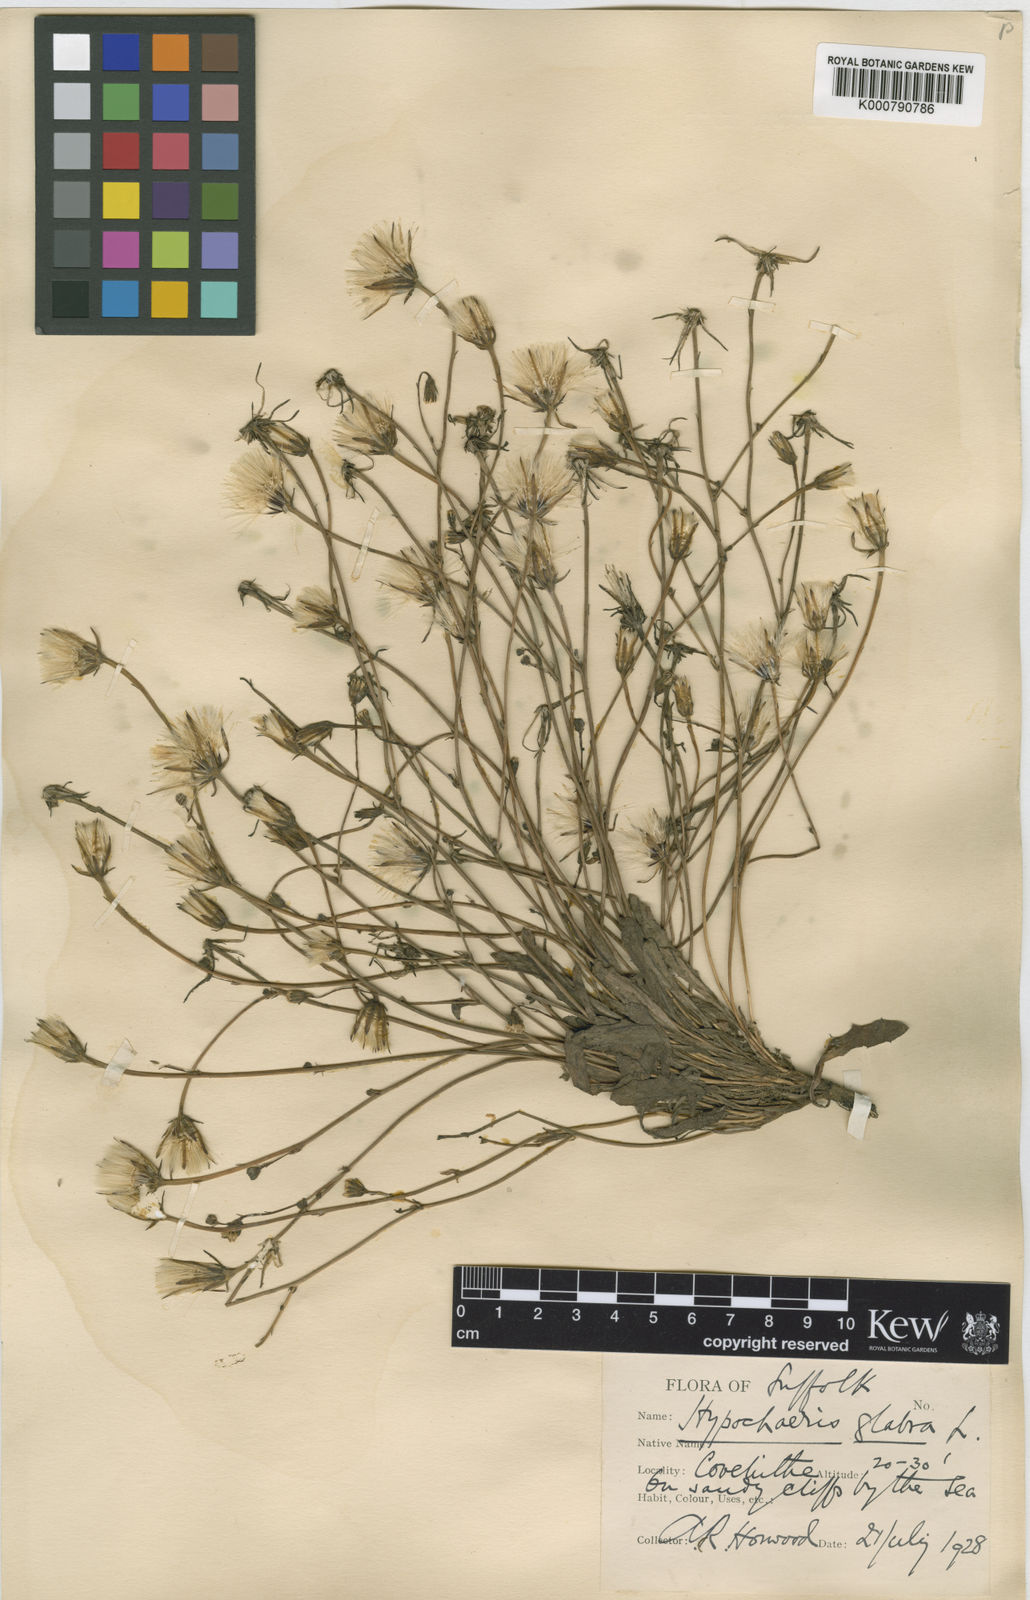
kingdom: Plantae
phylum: Tracheophyta
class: Magnoliopsida
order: Asterales
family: Asteraceae
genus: Hypochaeris
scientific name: Hypochaeris glabra
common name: Smooth catsear
